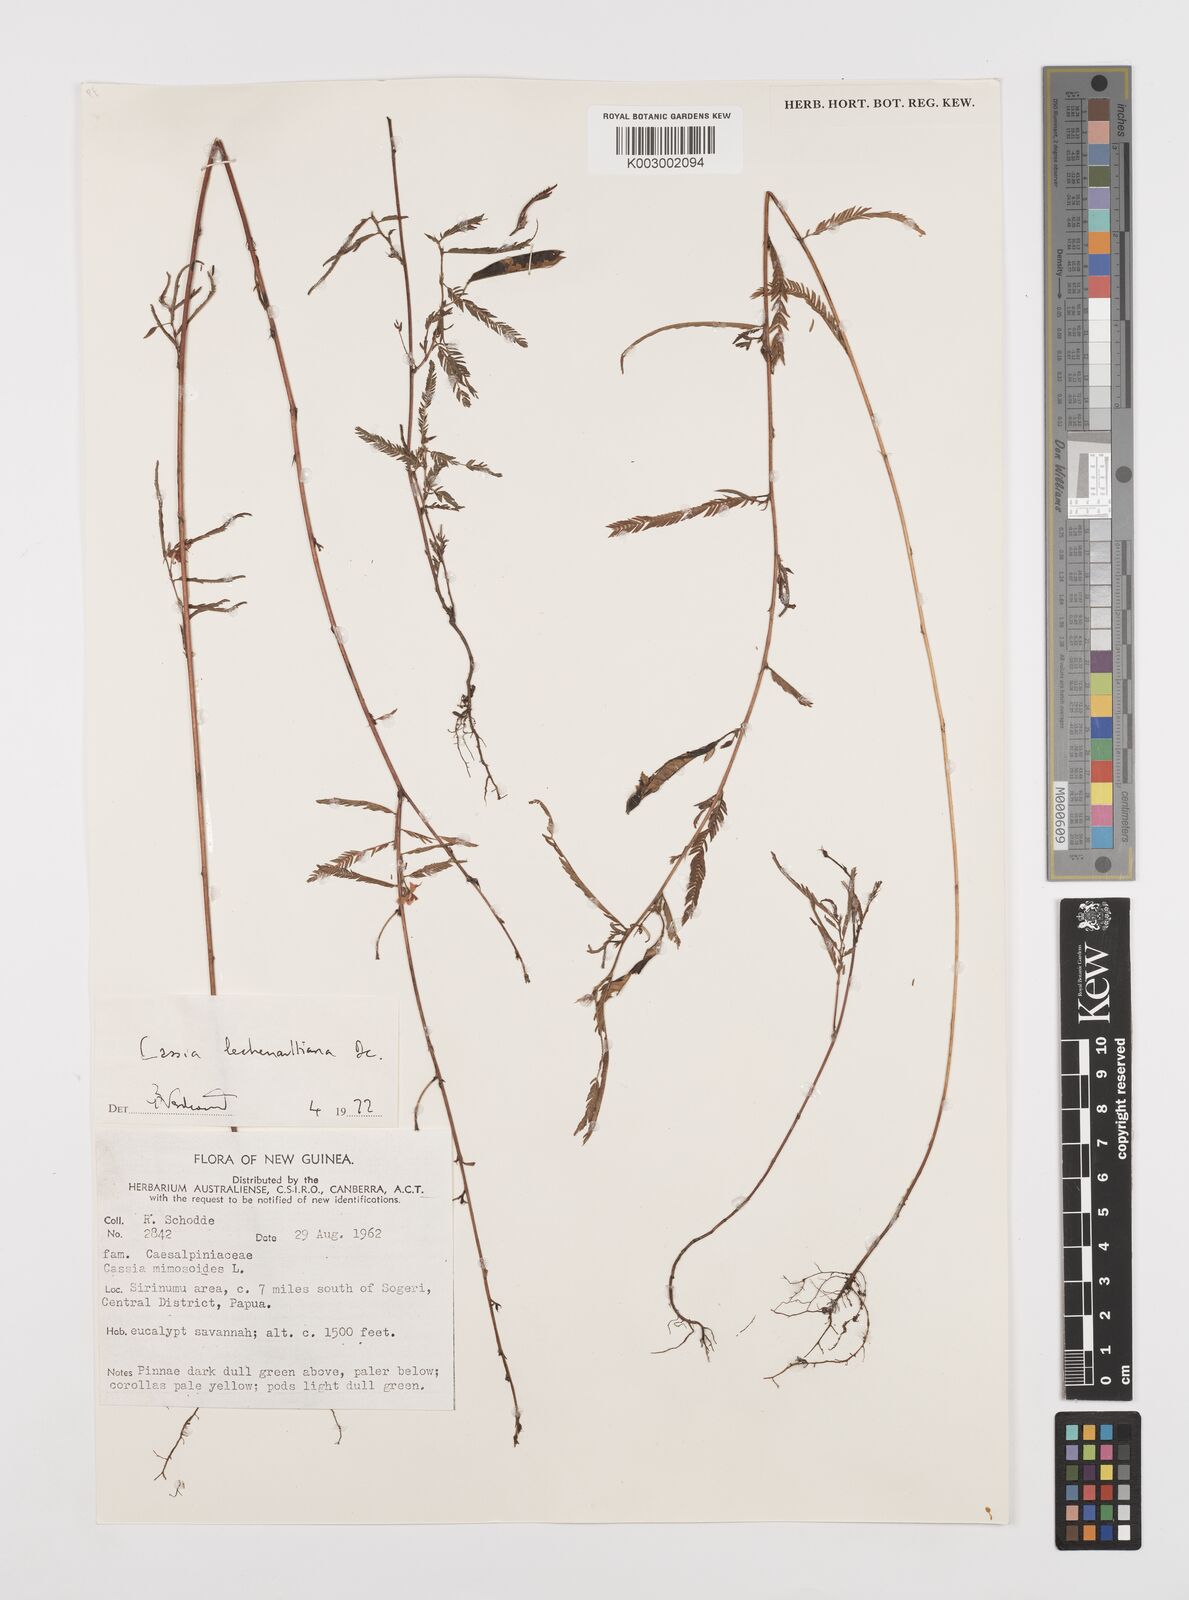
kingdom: Plantae
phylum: Tracheophyta
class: Magnoliopsida
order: Fabales
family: Fabaceae
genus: Chamaecrista
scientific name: Chamaecrista mimosoides
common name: Fish-bone cassia
